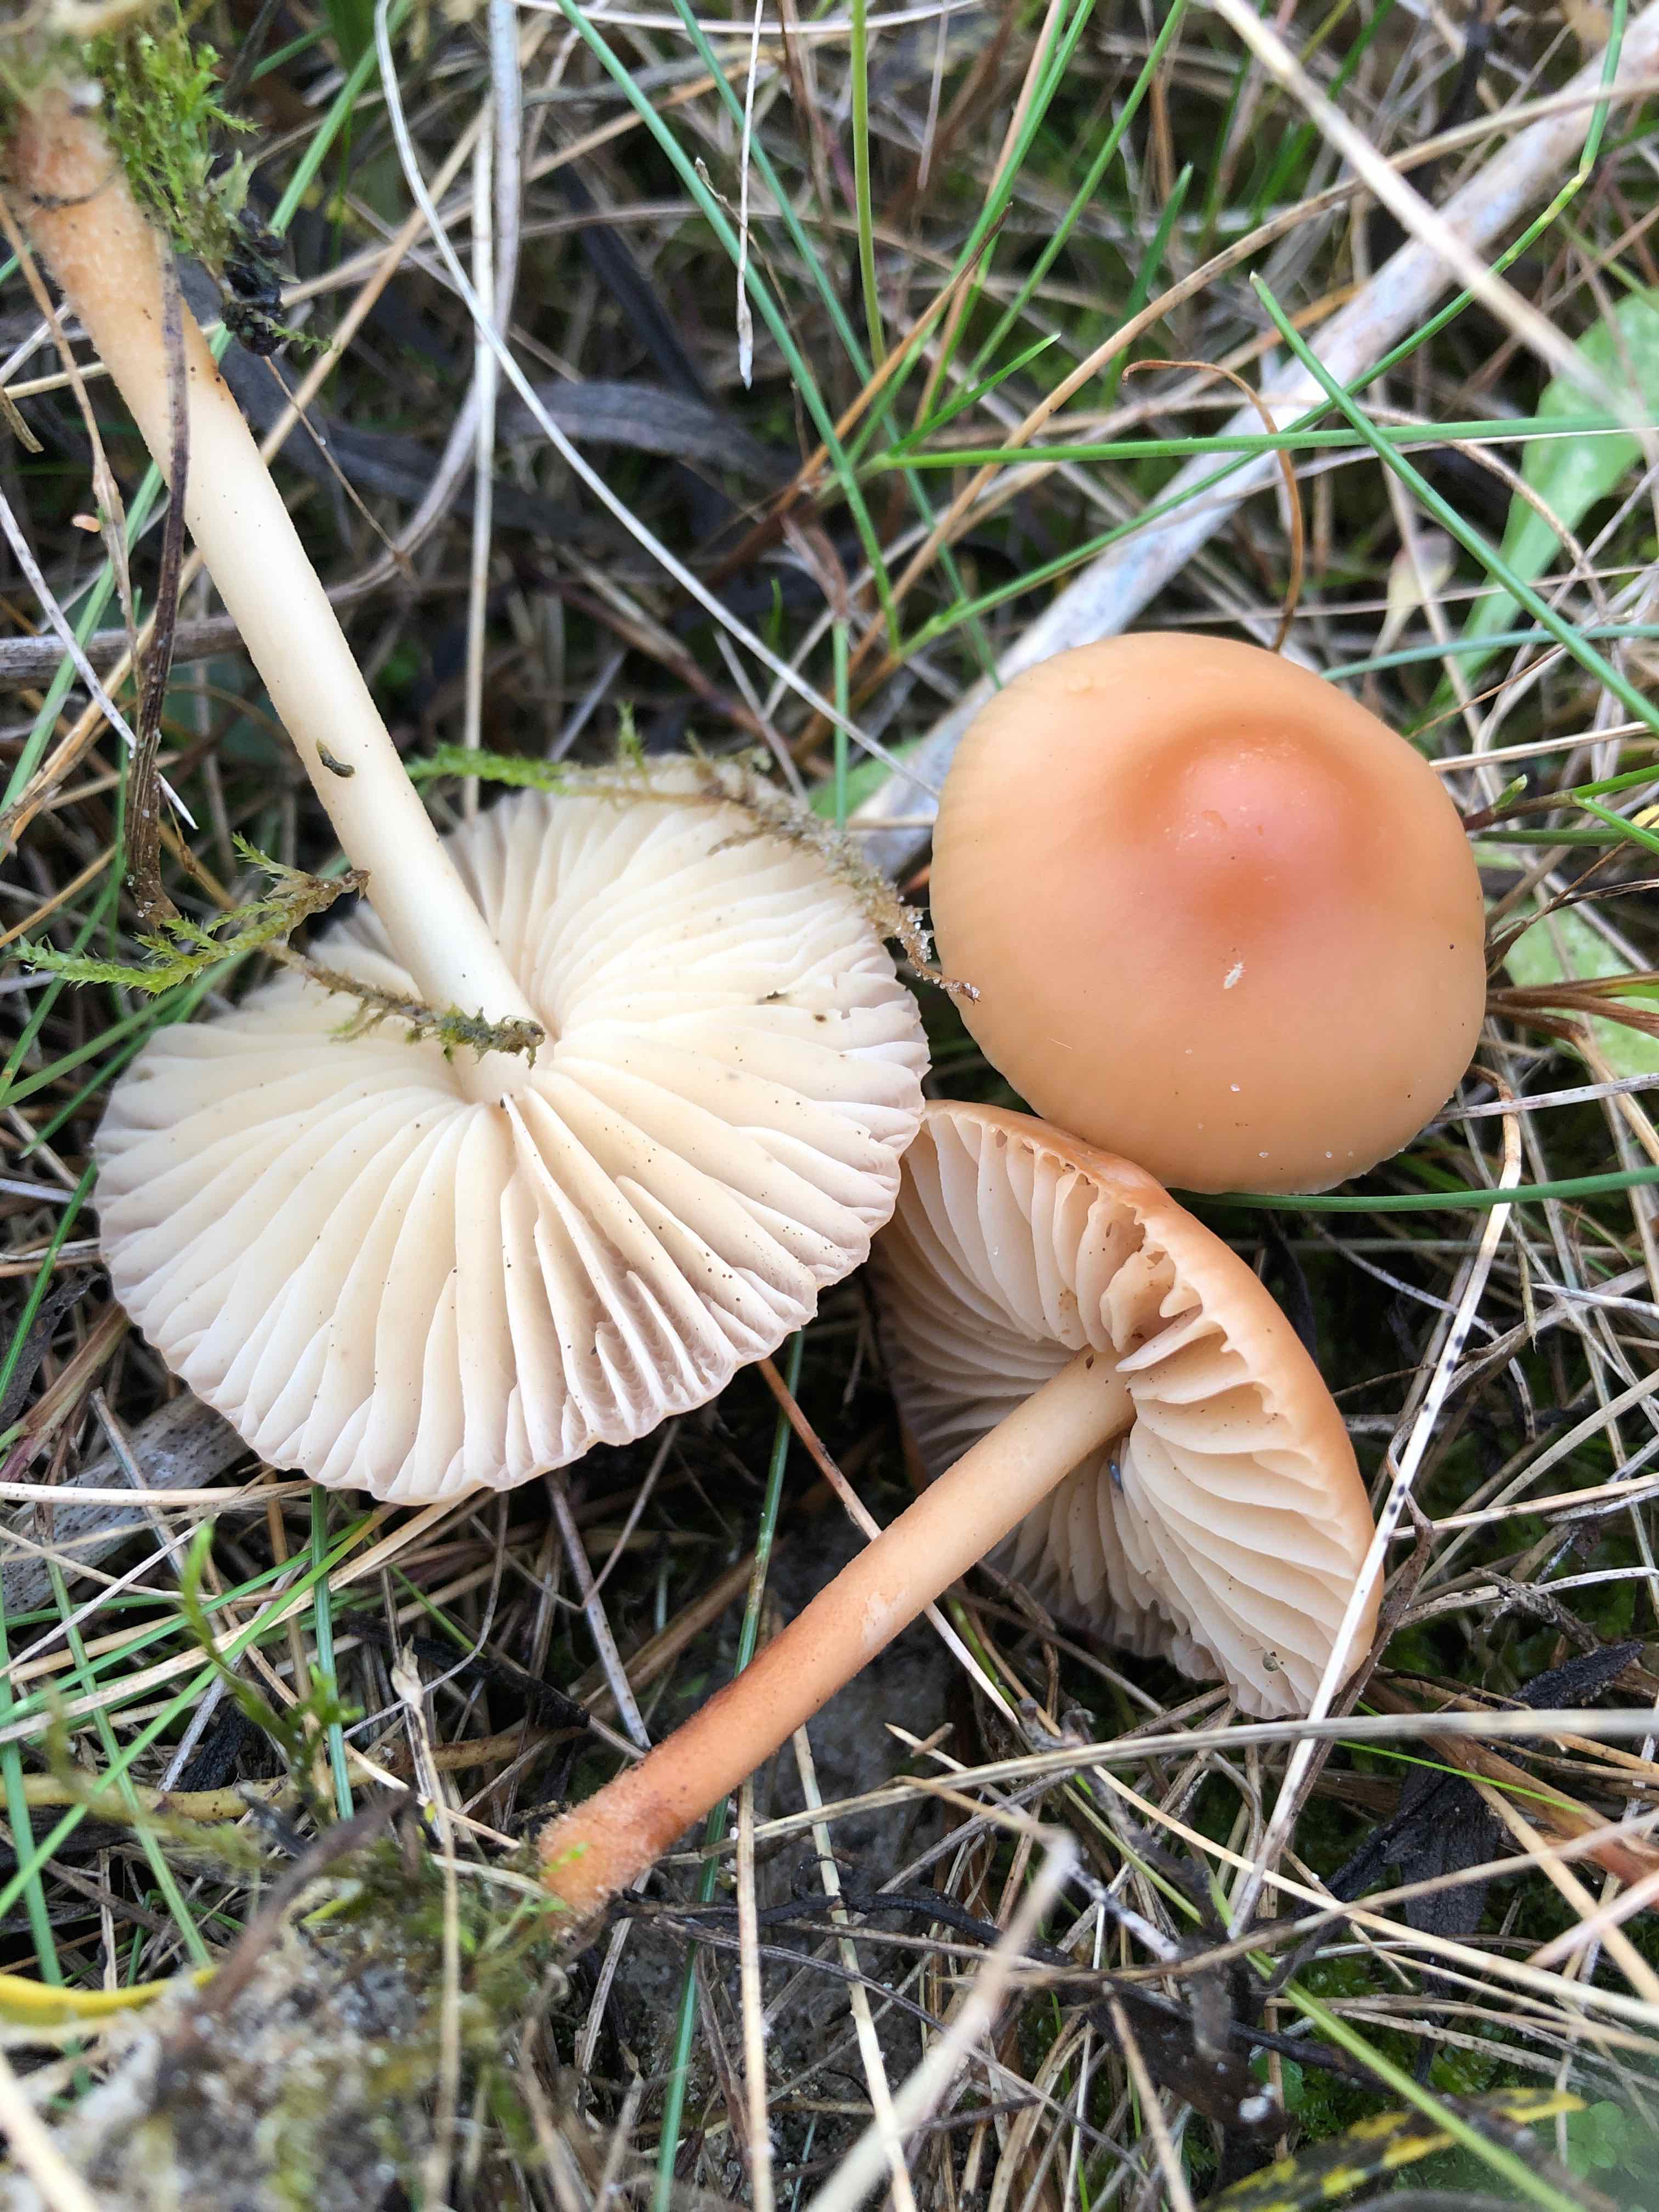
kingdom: Fungi
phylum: Basidiomycota
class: Agaricomycetes
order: Agaricales
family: Marasmiaceae
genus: Marasmius
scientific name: Marasmius oreades
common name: elledans-bruskhat
